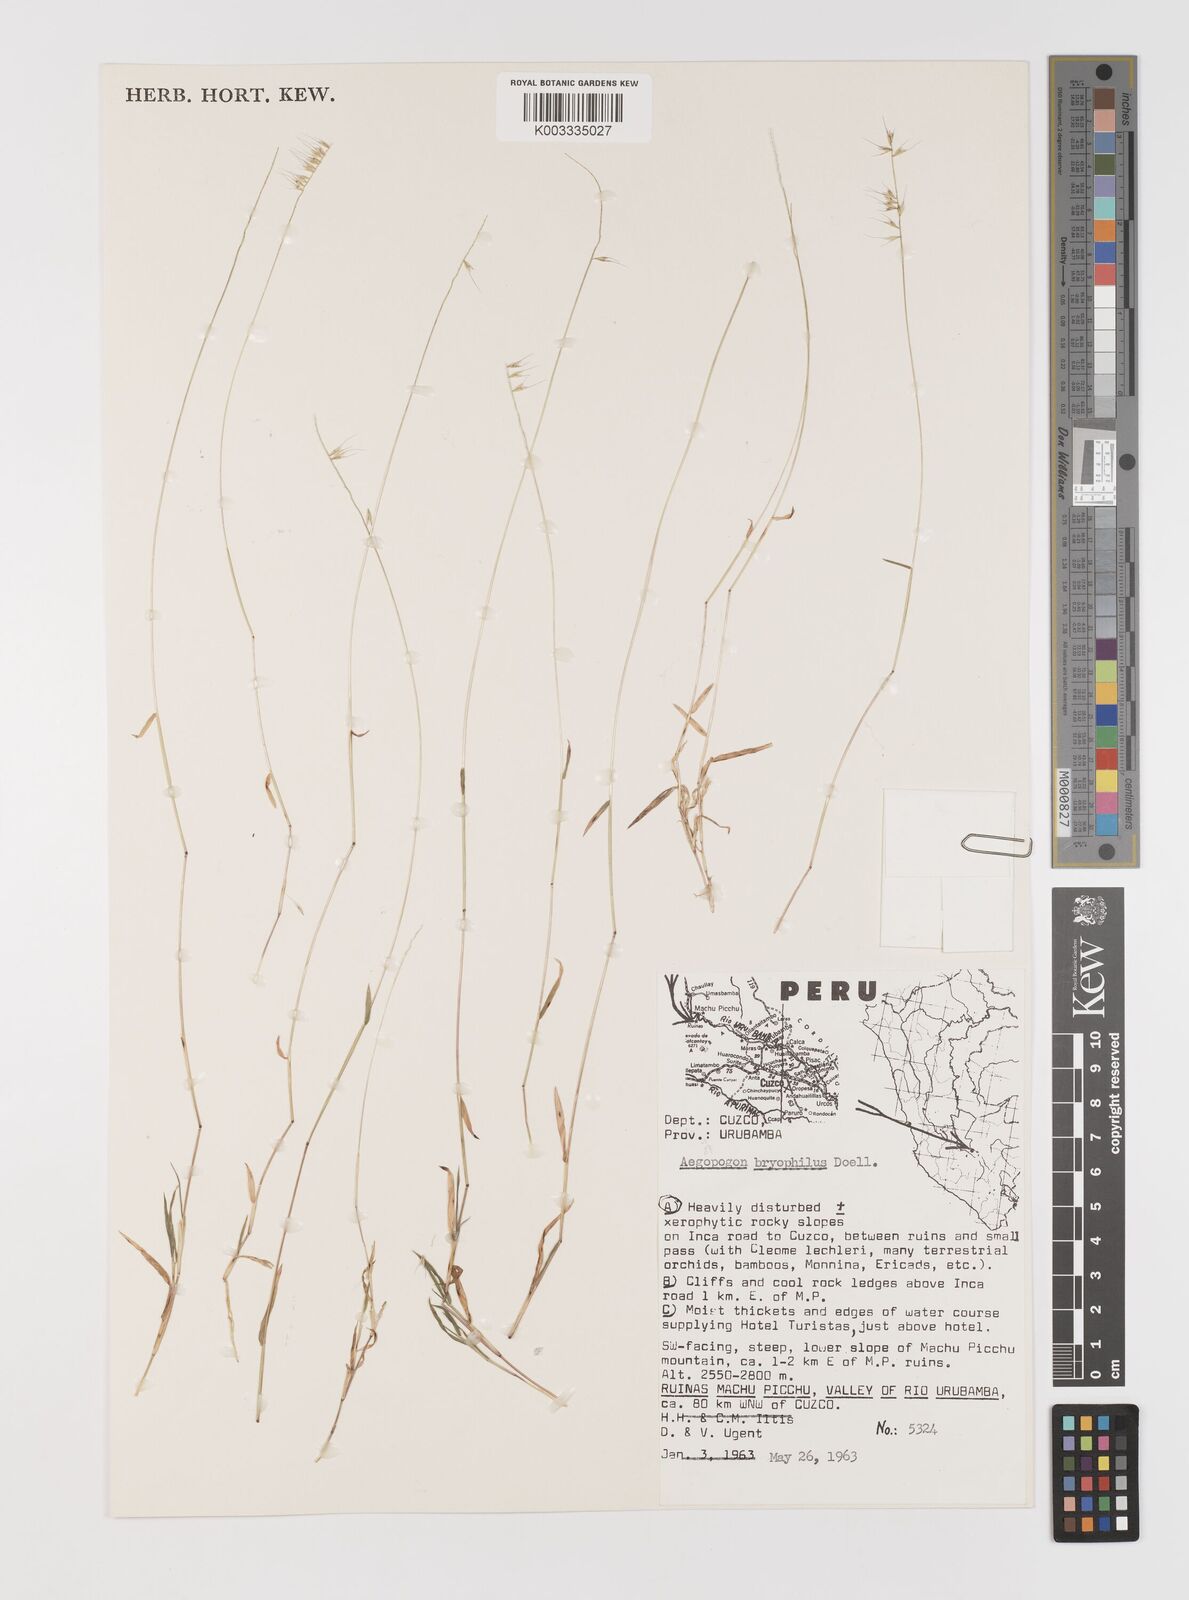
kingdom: Plantae
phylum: Tracheophyta
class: Liliopsida
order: Poales
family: Poaceae
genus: Muhlenbergia
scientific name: Muhlenbergia cenchroides
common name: Relaxgrass
